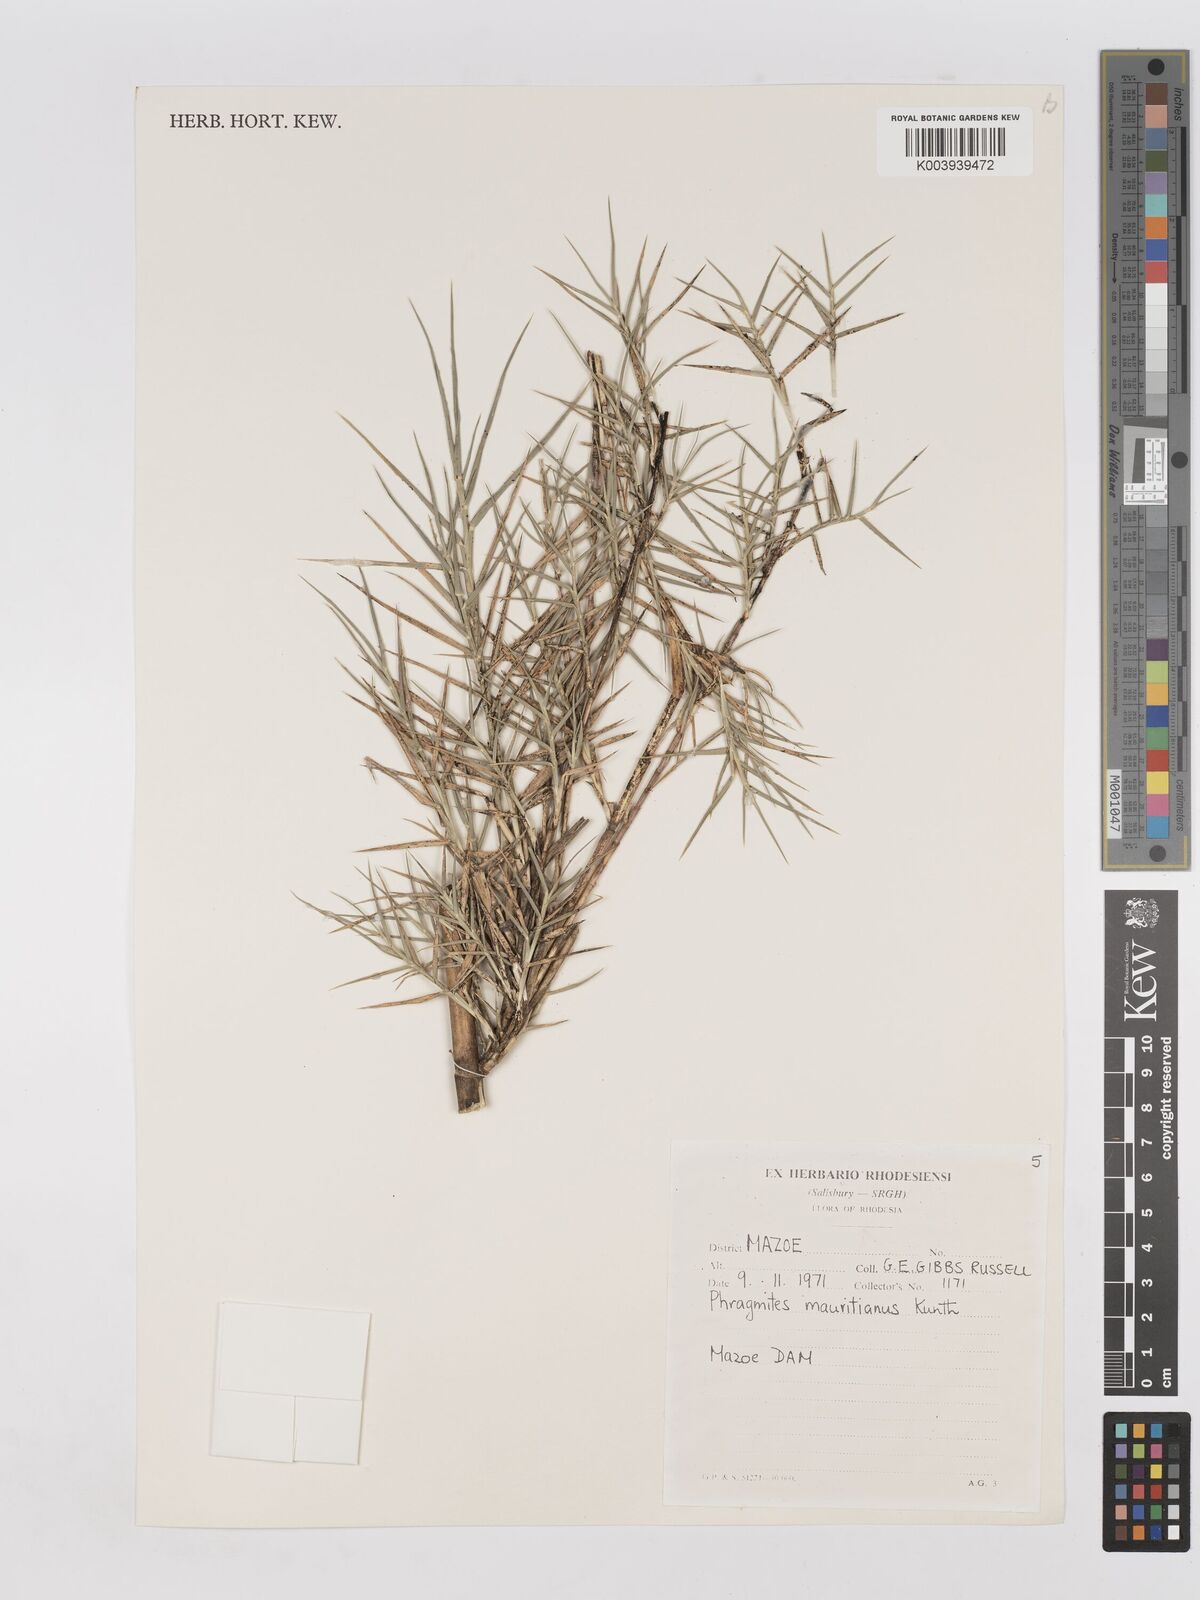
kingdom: Plantae
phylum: Tracheophyta
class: Liliopsida
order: Poales
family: Poaceae
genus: Phragmites
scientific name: Phragmites mauritianus
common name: Reed grass
